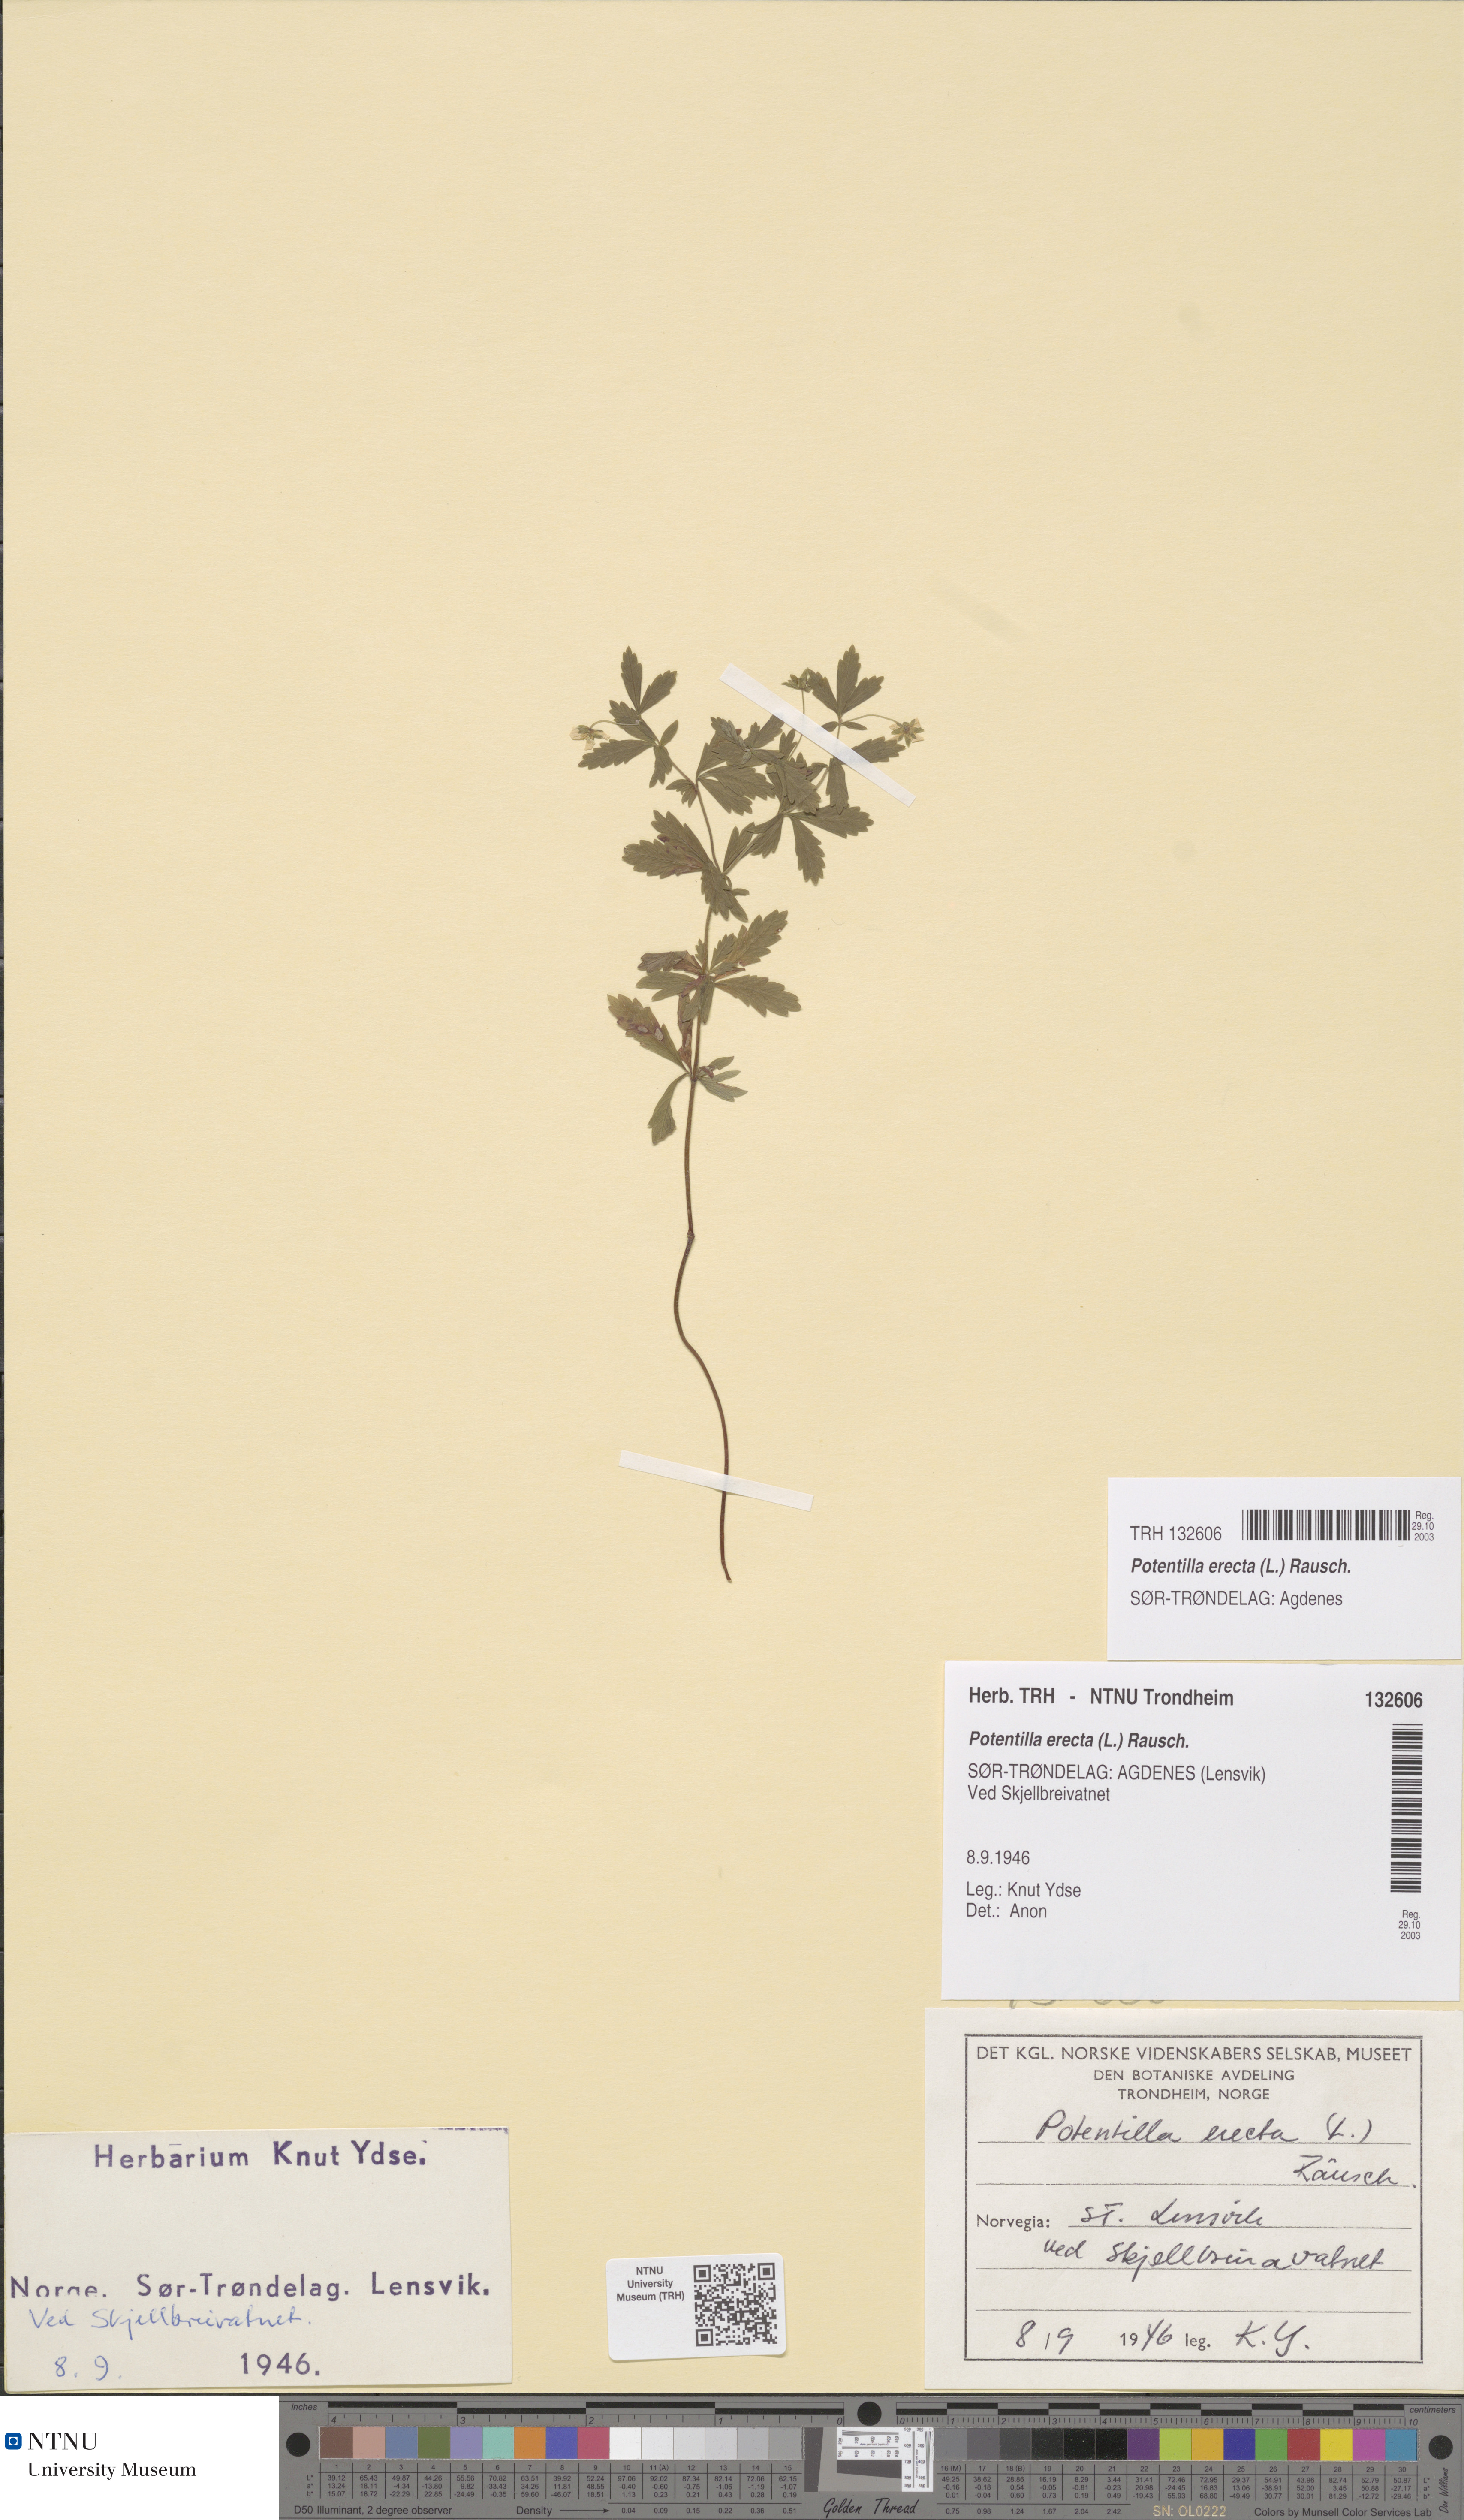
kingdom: Plantae
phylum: Tracheophyta
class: Magnoliopsida
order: Rosales
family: Rosaceae
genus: Potentilla
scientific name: Potentilla erecta
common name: Tormentil
